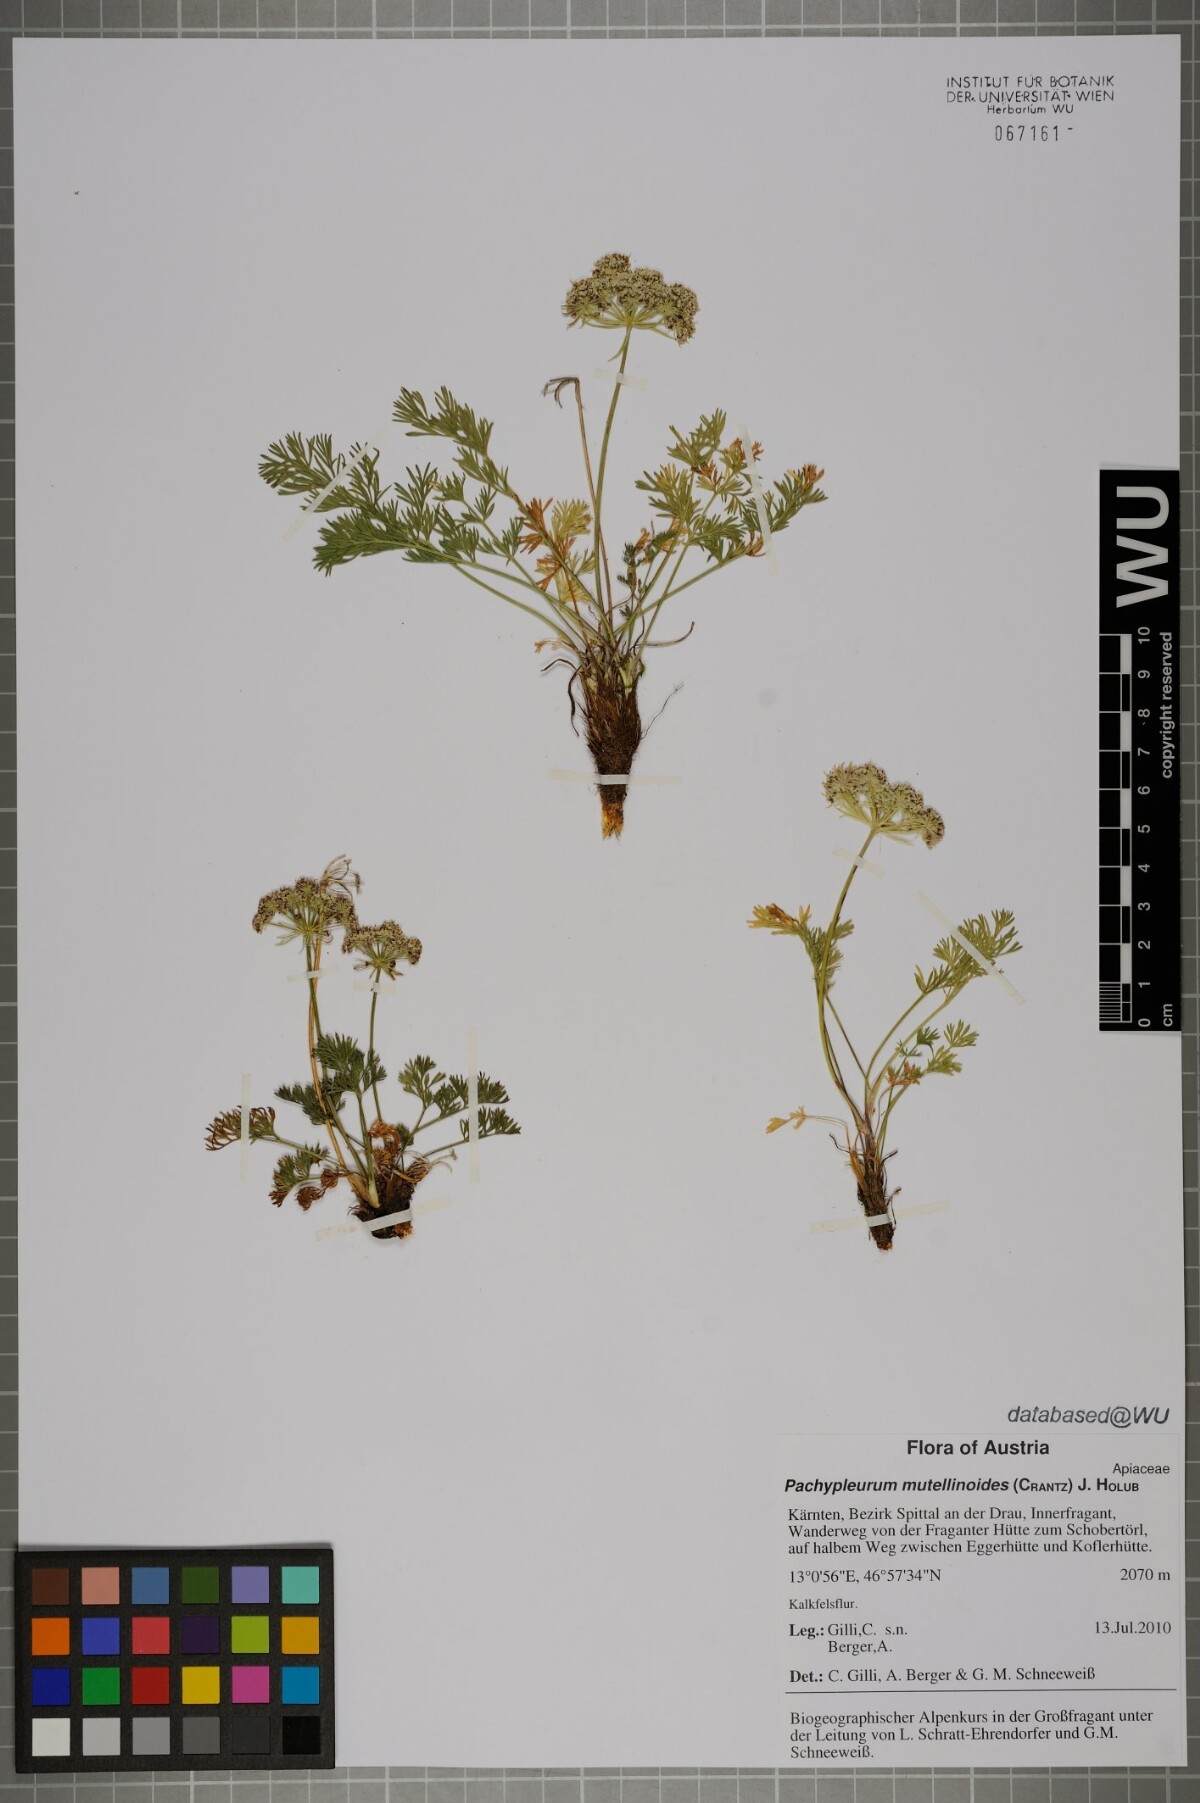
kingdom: Plantae
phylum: Tracheophyta
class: Magnoliopsida
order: Apiales
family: Apiaceae
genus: Pachypleurum
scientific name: Pachypleurum mutellinoides
